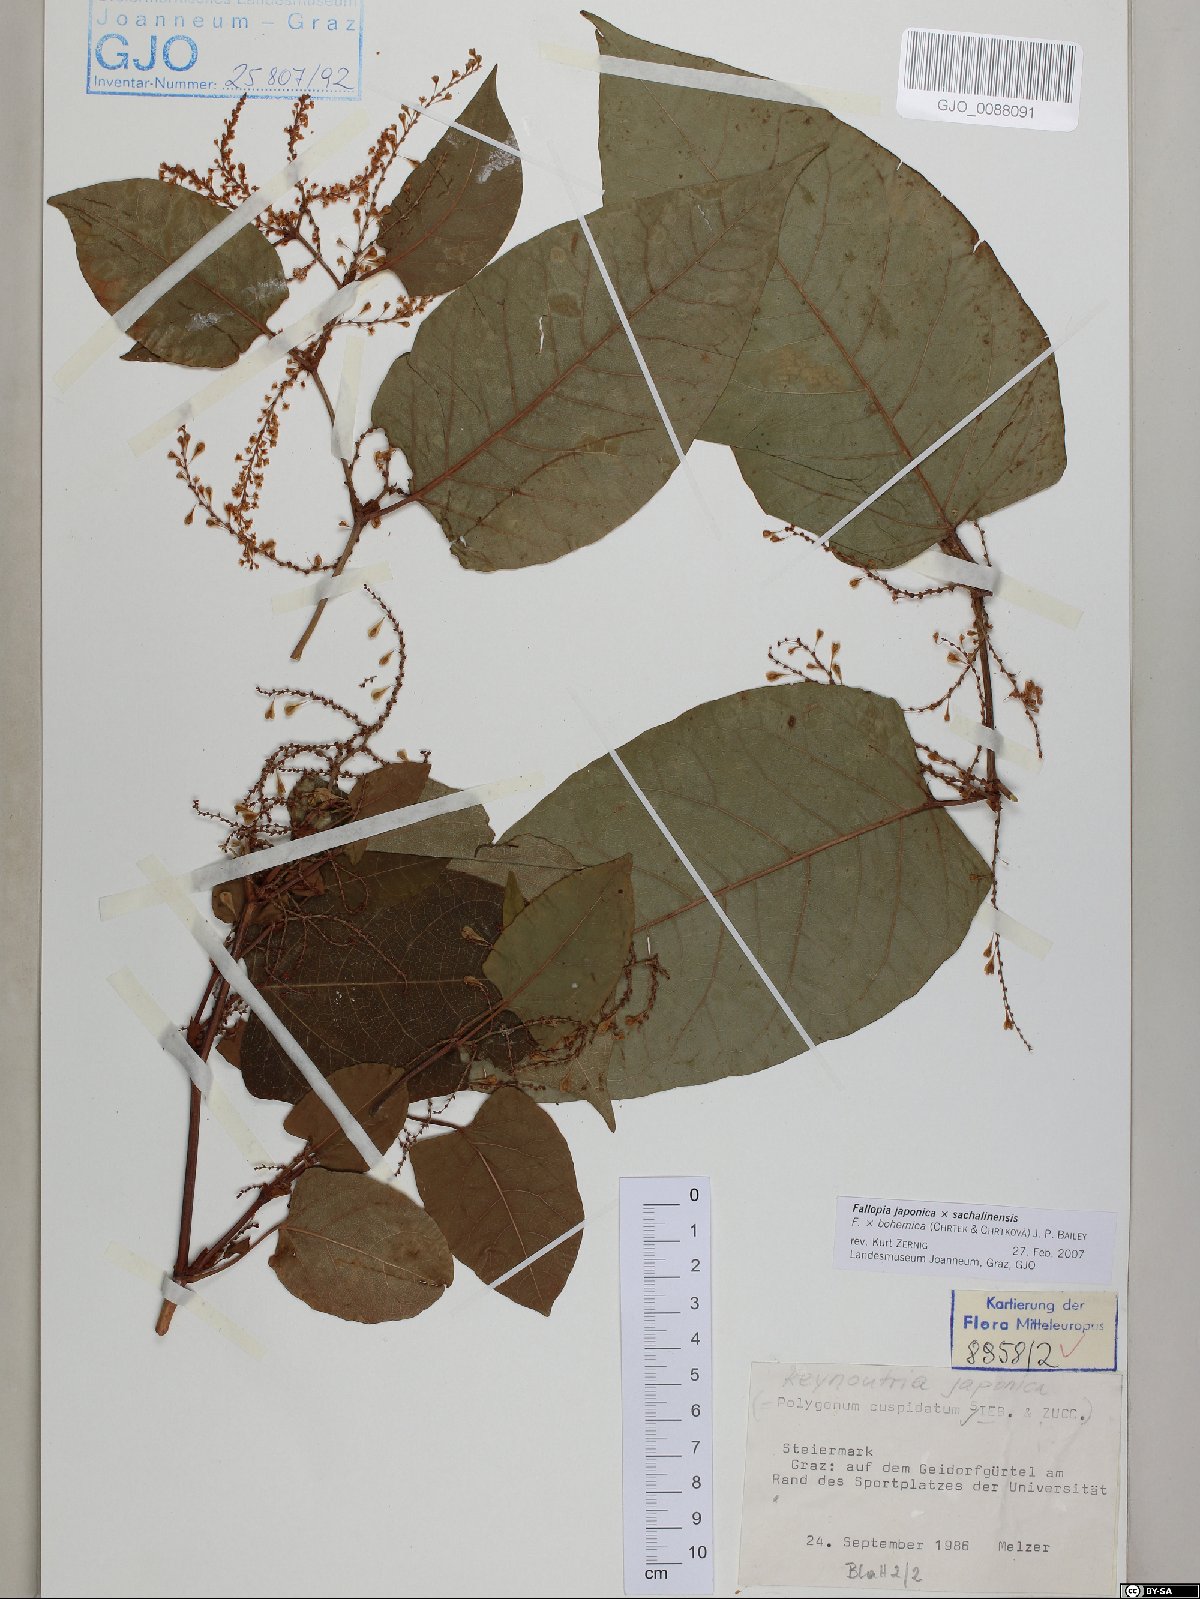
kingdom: Plantae
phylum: Tracheophyta
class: Magnoliopsida
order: Caryophyllales
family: Polygonaceae
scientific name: Polygonaceae
